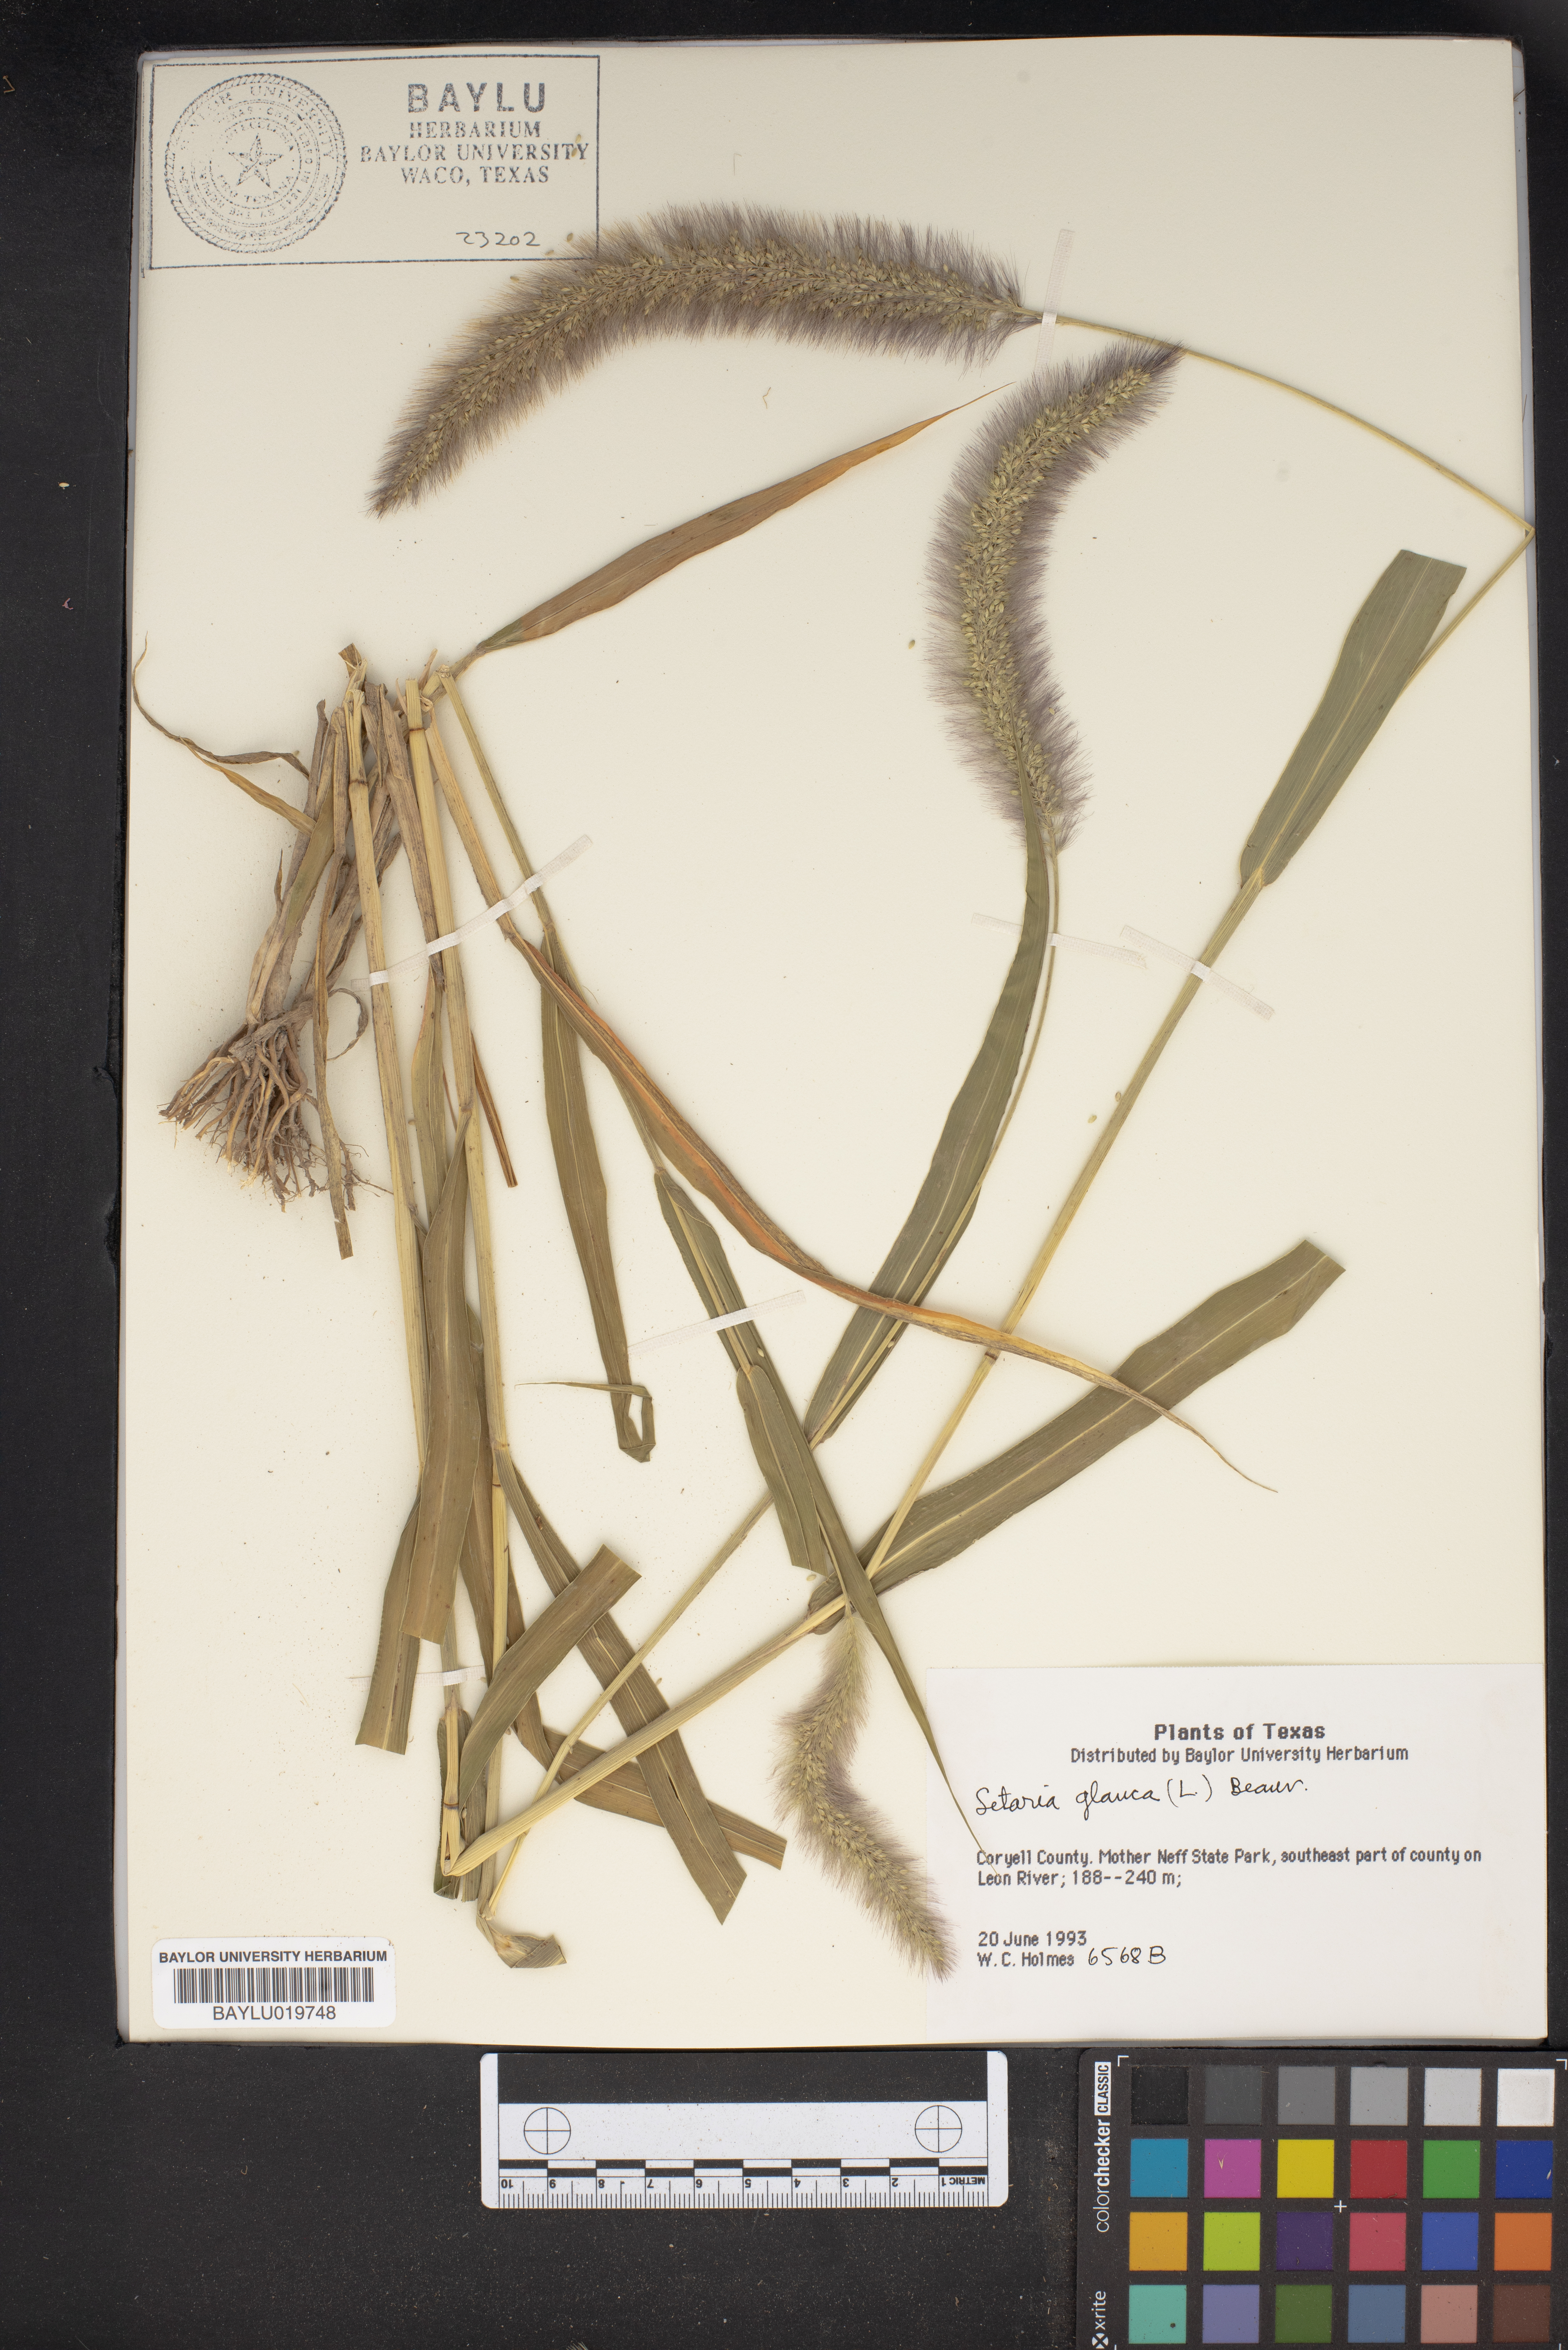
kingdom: Plantae
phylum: Tracheophyta
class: Liliopsida
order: Poales
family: Poaceae
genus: Cenchrus
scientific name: Cenchrus americanus
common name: Pearl millet
